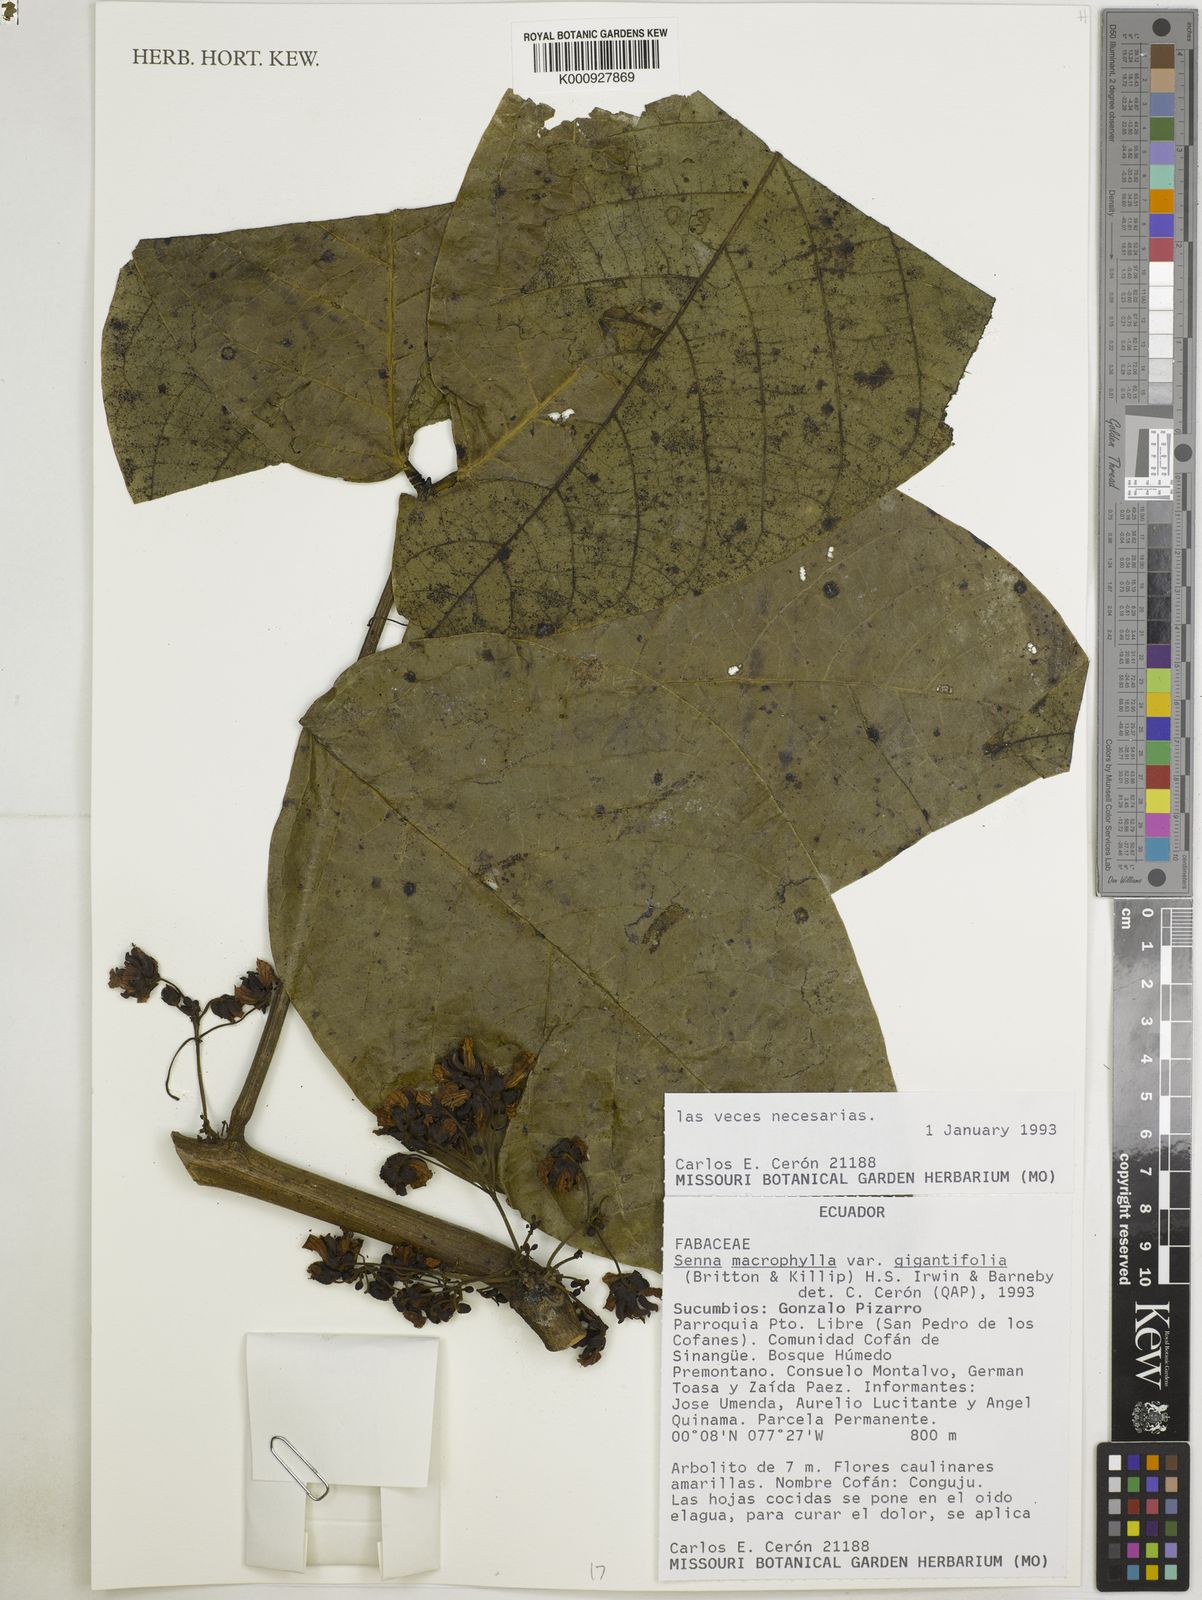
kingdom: Plantae
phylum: Tracheophyta
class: Magnoliopsida
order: Fabales
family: Fabaceae
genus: Senna
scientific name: Senna macrophylla
